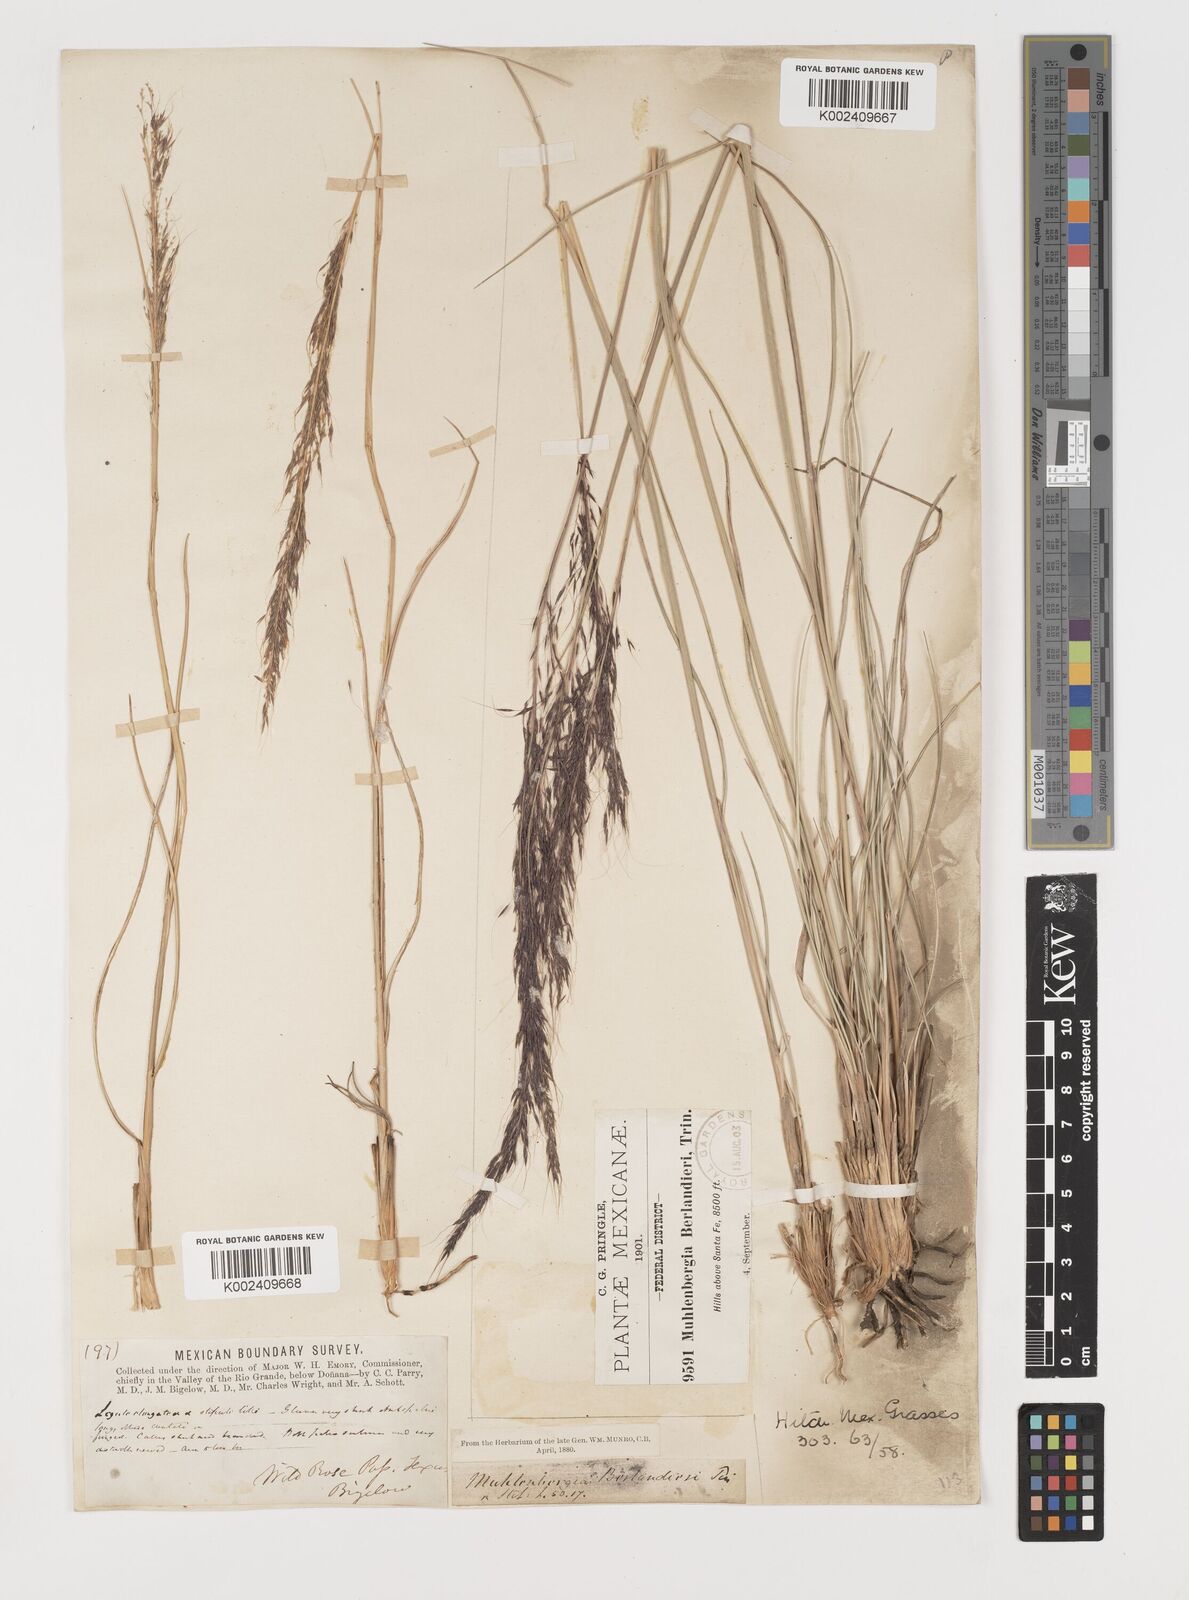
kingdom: Plantae
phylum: Tracheophyta
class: Liliopsida
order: Poales
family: Poaceae
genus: Muhlenbergia
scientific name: Muhlenbergia rigida
